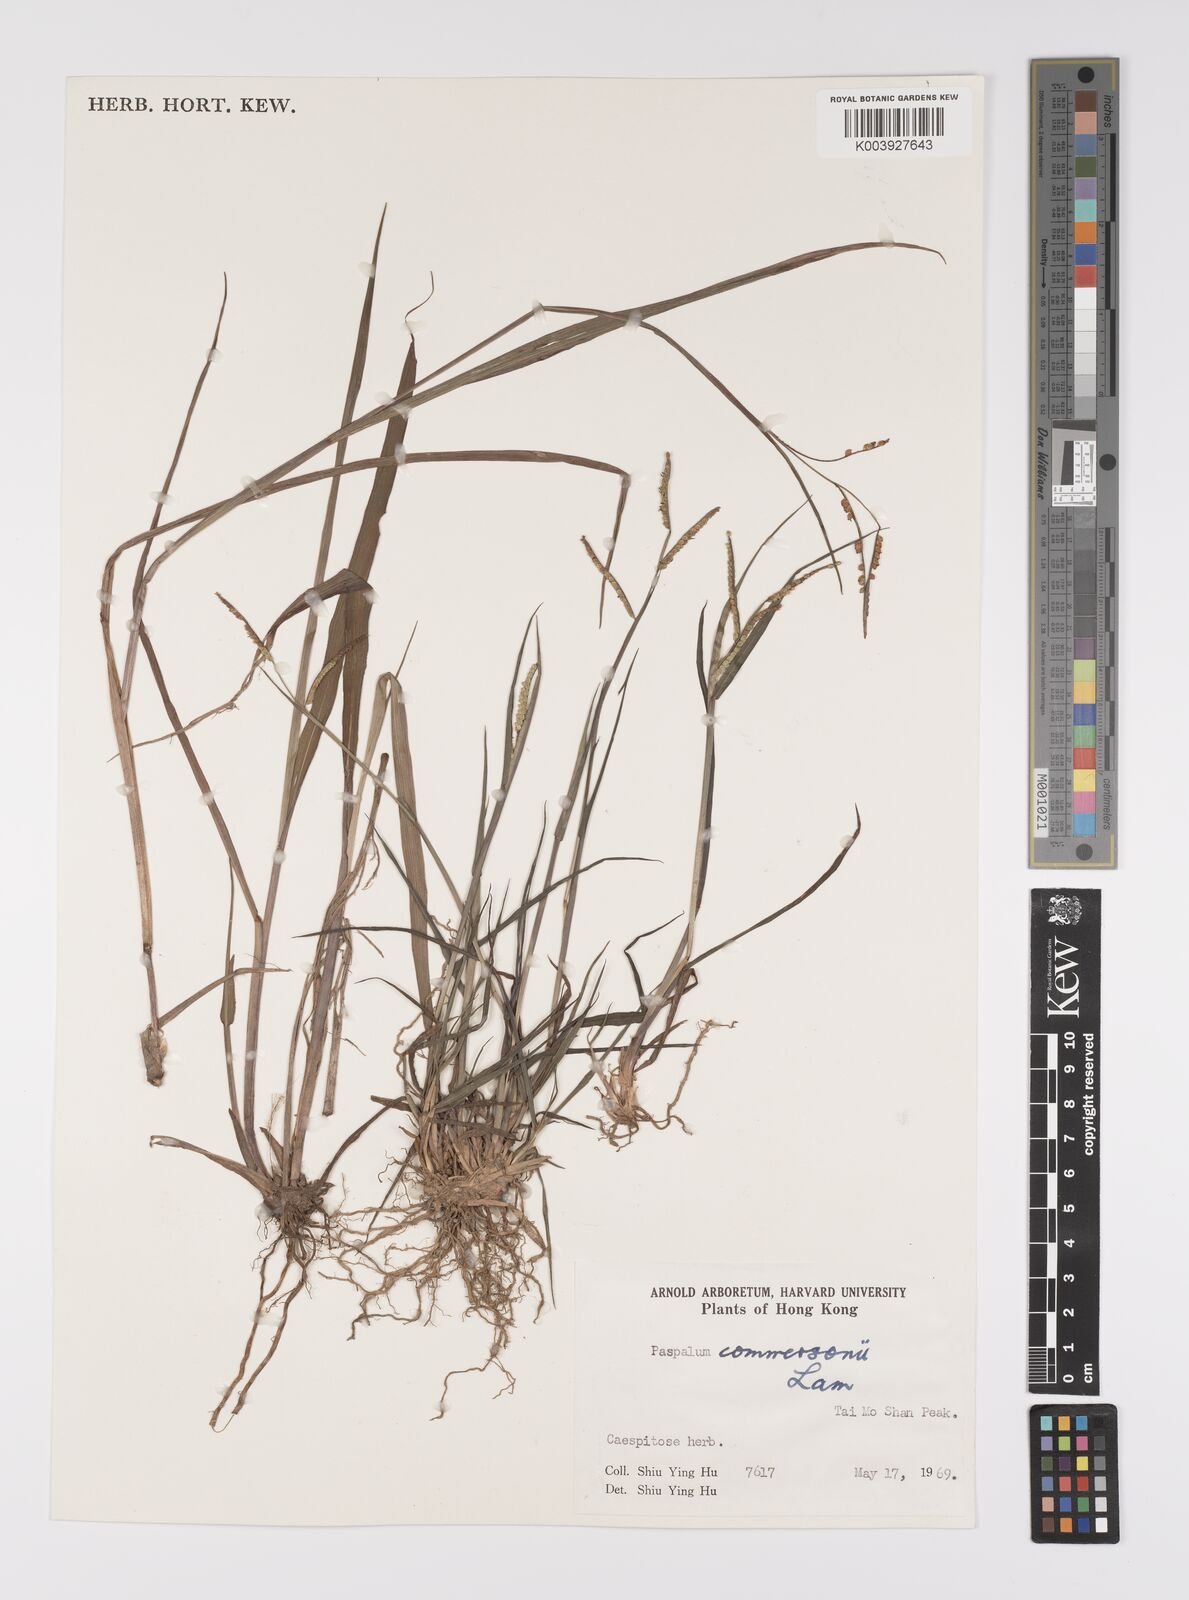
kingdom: Plantae
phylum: Tracheophyta
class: Liliopsida
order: Poales
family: Poaceae
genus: Paspalum
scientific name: Paspalum orbiculare
